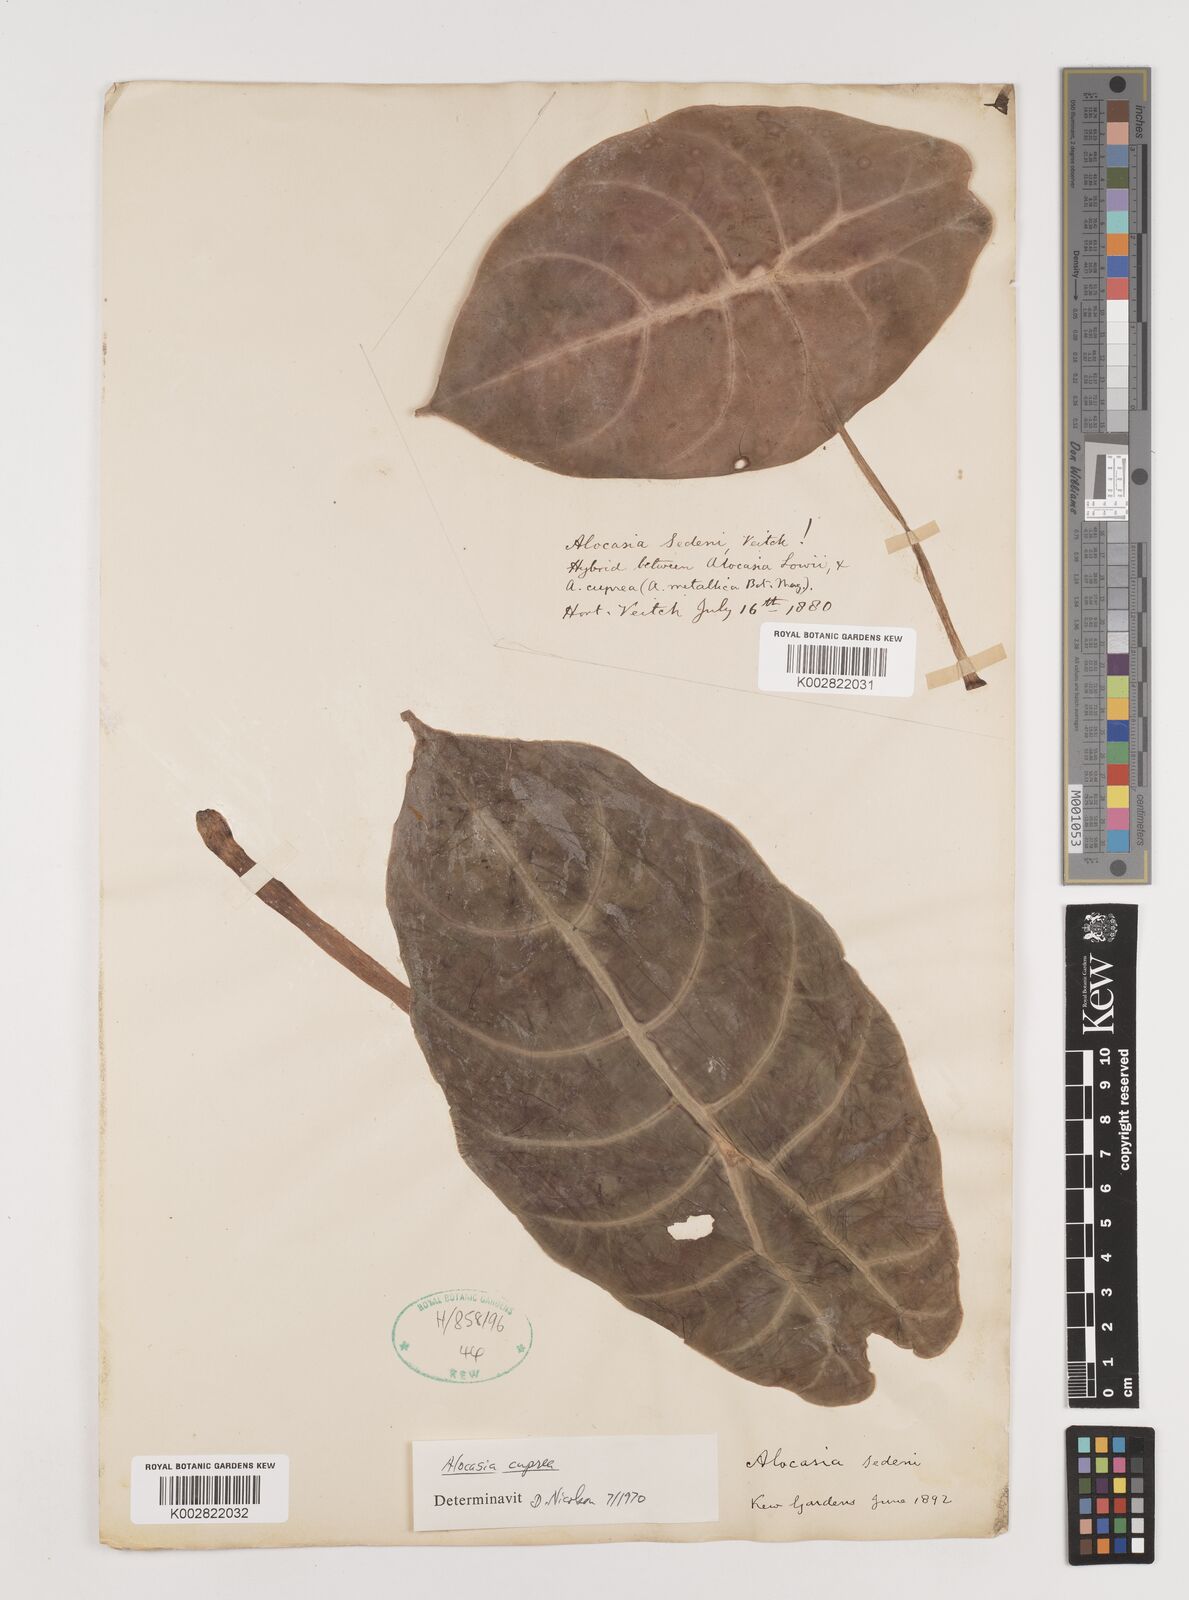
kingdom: Plantae
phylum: Tracheophyta
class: Liliopsida
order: Alismatales
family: Araceae
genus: Alocasia
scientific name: Alocasia
